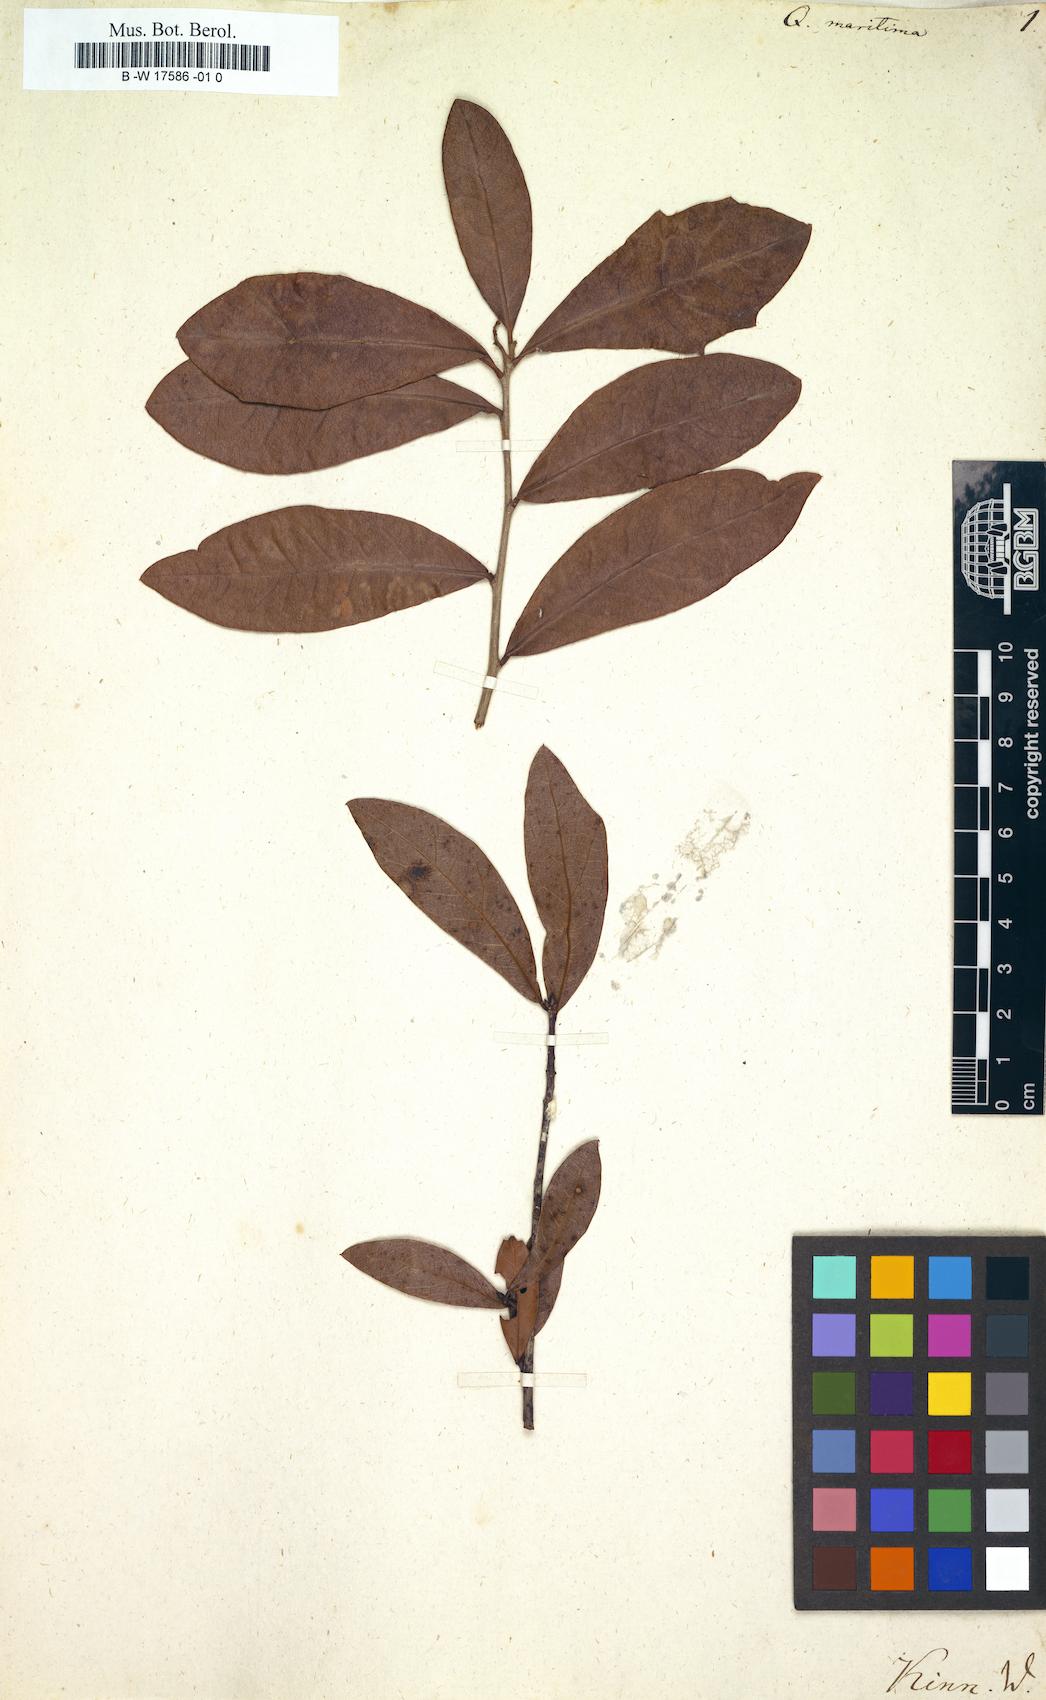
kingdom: Plantae
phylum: Tracheophyta
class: Magnoliopsida
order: Fagales
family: Fagaceae
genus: Quercus
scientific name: Quercus hemisphaerica
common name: Darlington oak
